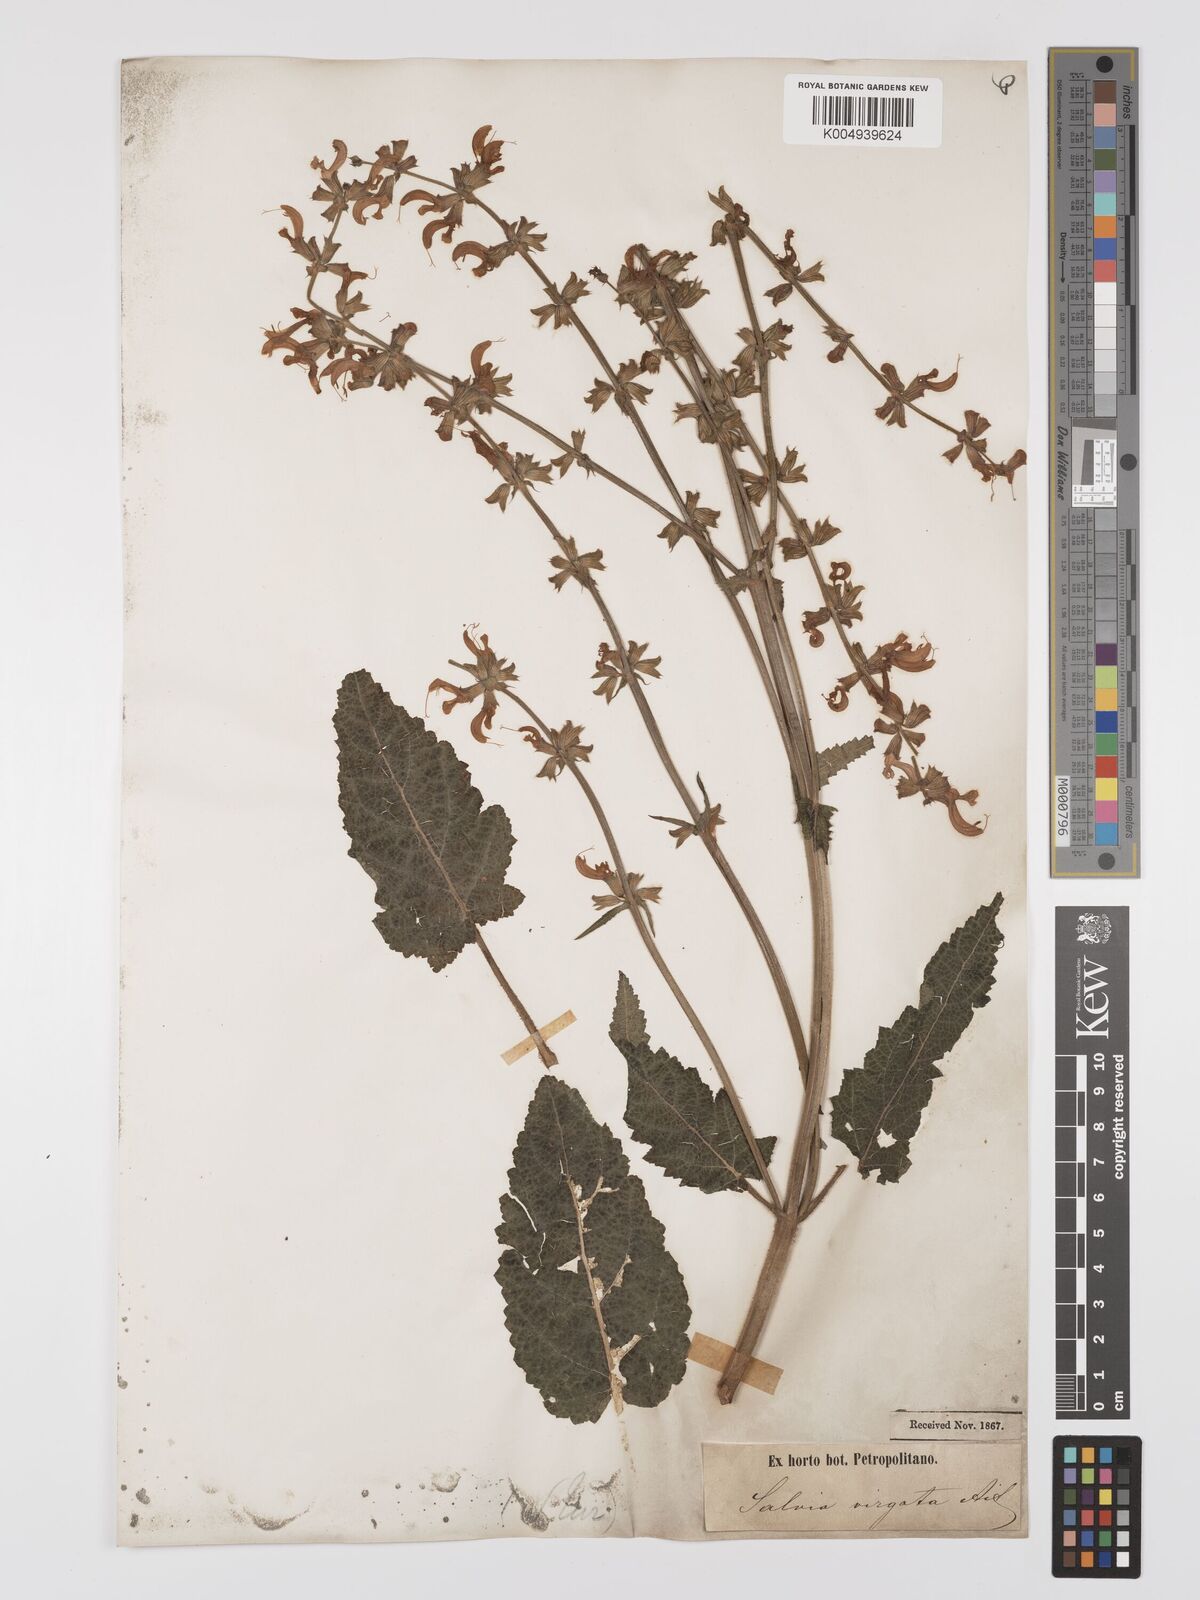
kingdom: Plantae
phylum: Tracheophyta
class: Magnoliopsida
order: Lamiales
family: Lamiaceae
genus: Salvia
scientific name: Salvia
